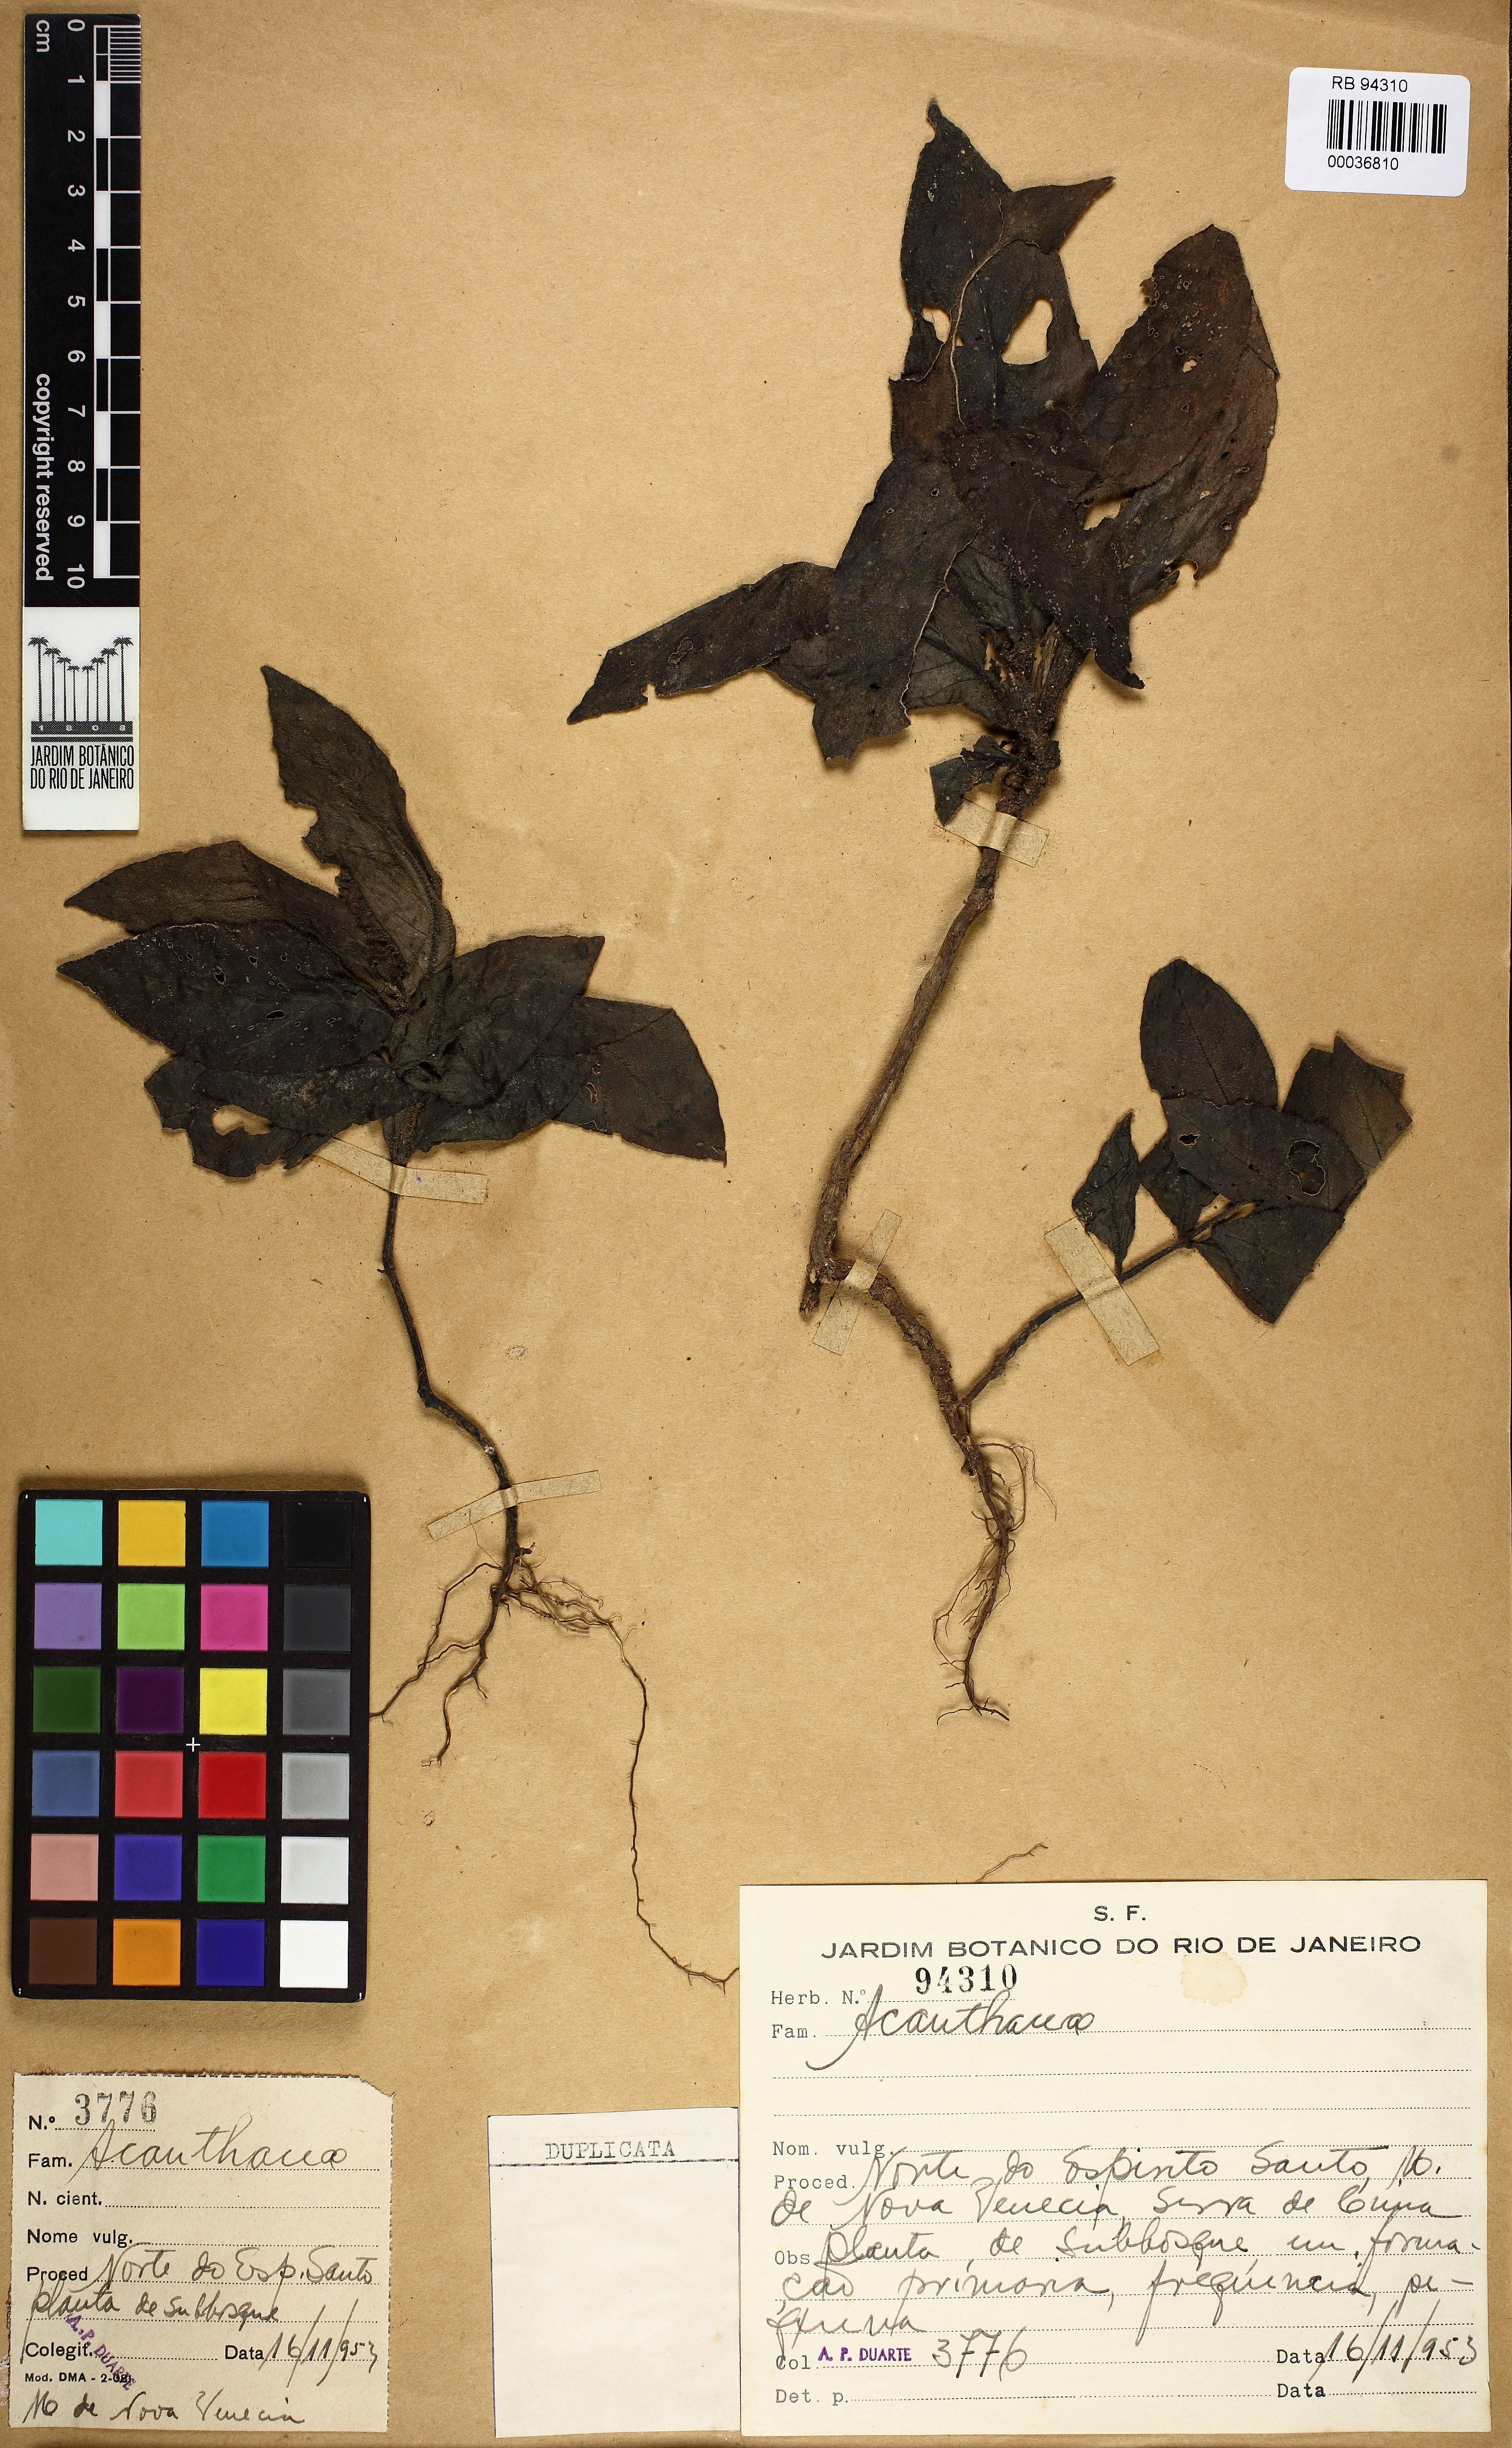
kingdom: Plantae
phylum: Tracheophyta
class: Magnoliopsida
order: Lamiales
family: Acanthaceae
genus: Justicia
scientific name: Justicia
